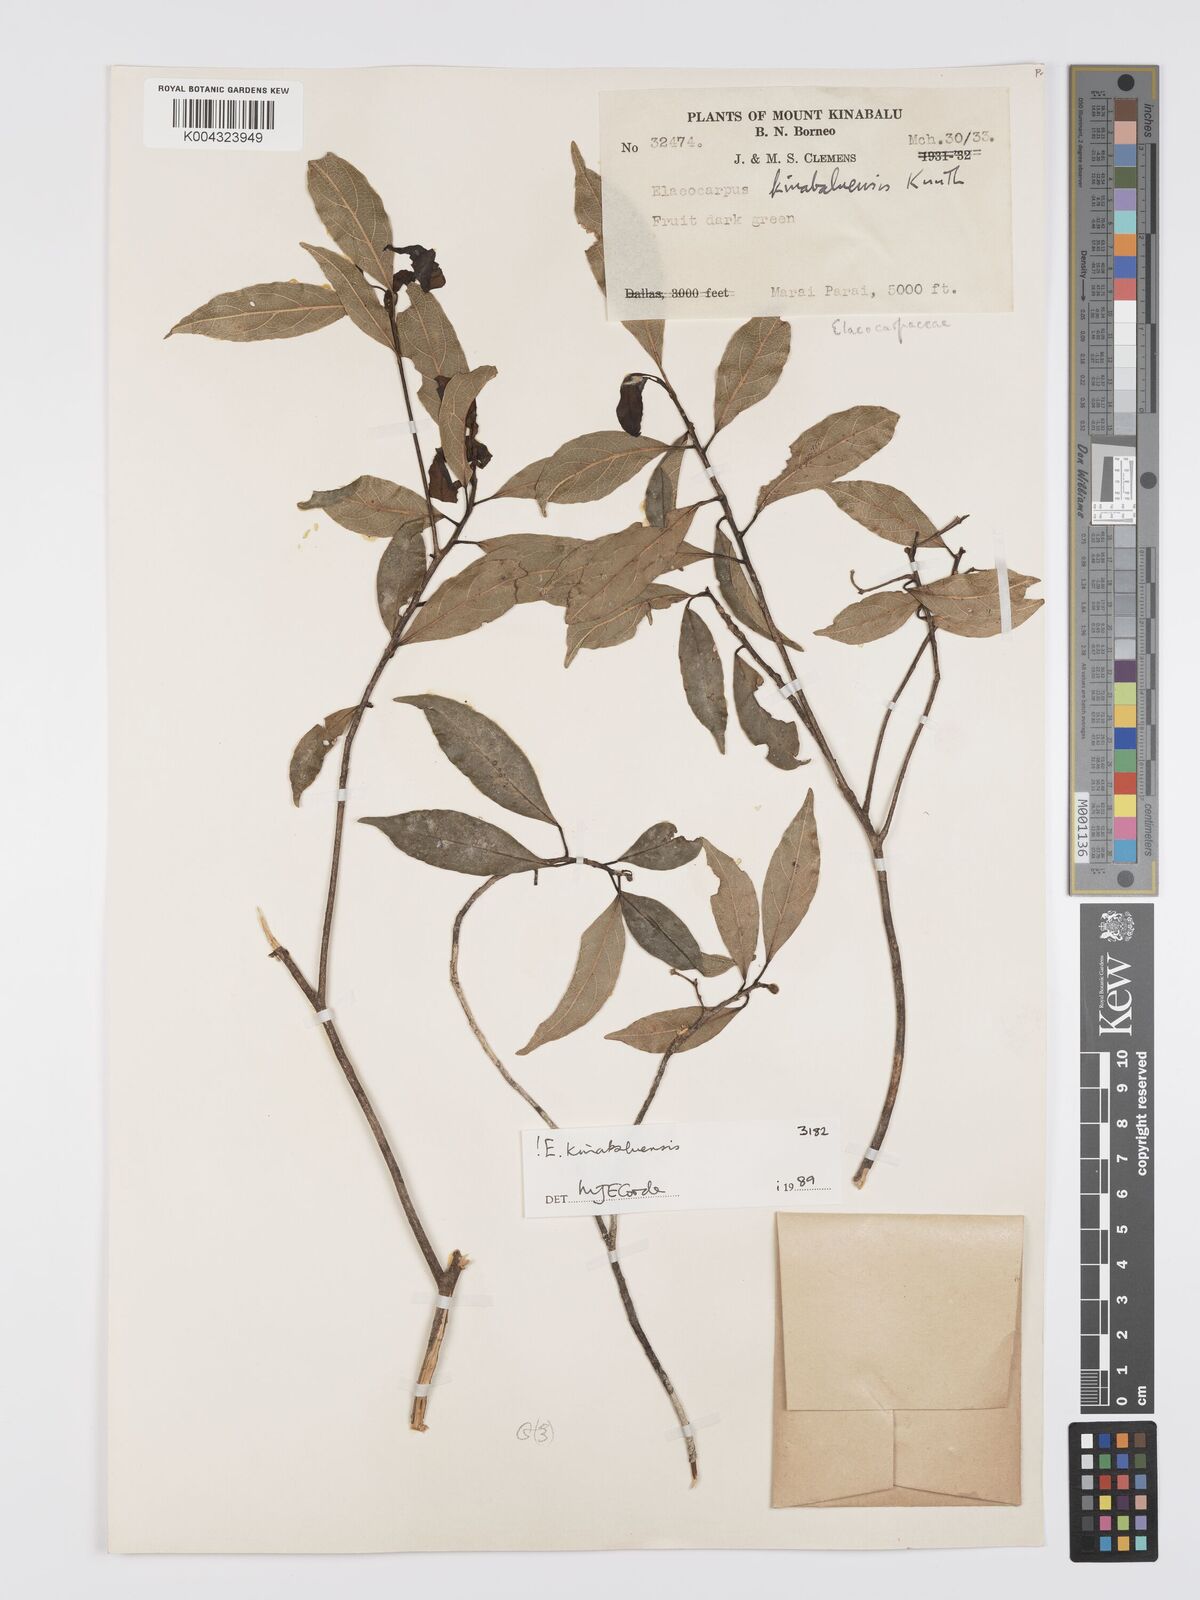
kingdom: Plantae
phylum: Tracheophyta
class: Magnoliopsida
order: Oxalidales
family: Elaeocarpaceae
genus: Elaeocarpus
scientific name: Elaeocarpus kinabaluensis
